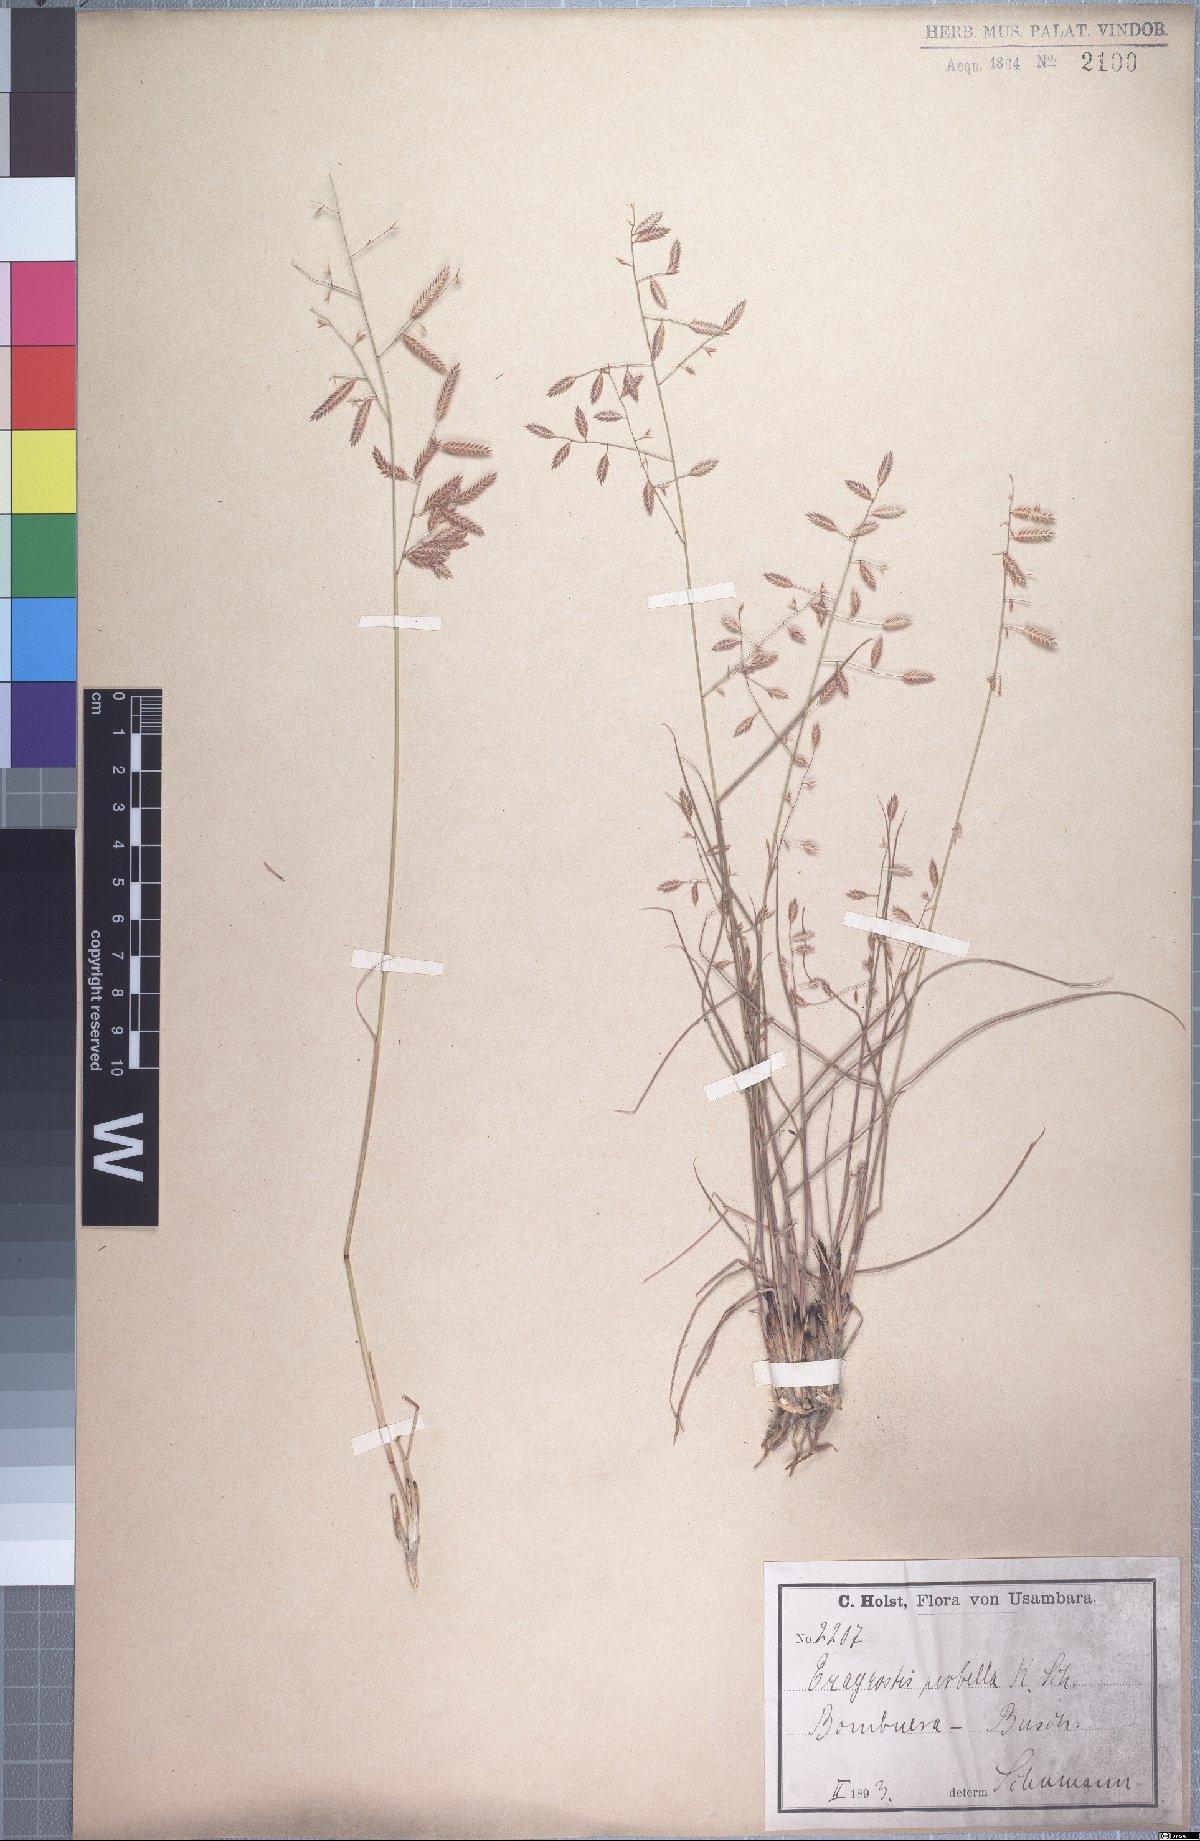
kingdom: Plantae
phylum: Tracheophyta
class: Liliopsida
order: Poales
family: Poaceae
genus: Eragrostis
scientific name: Eragrostis perbella
